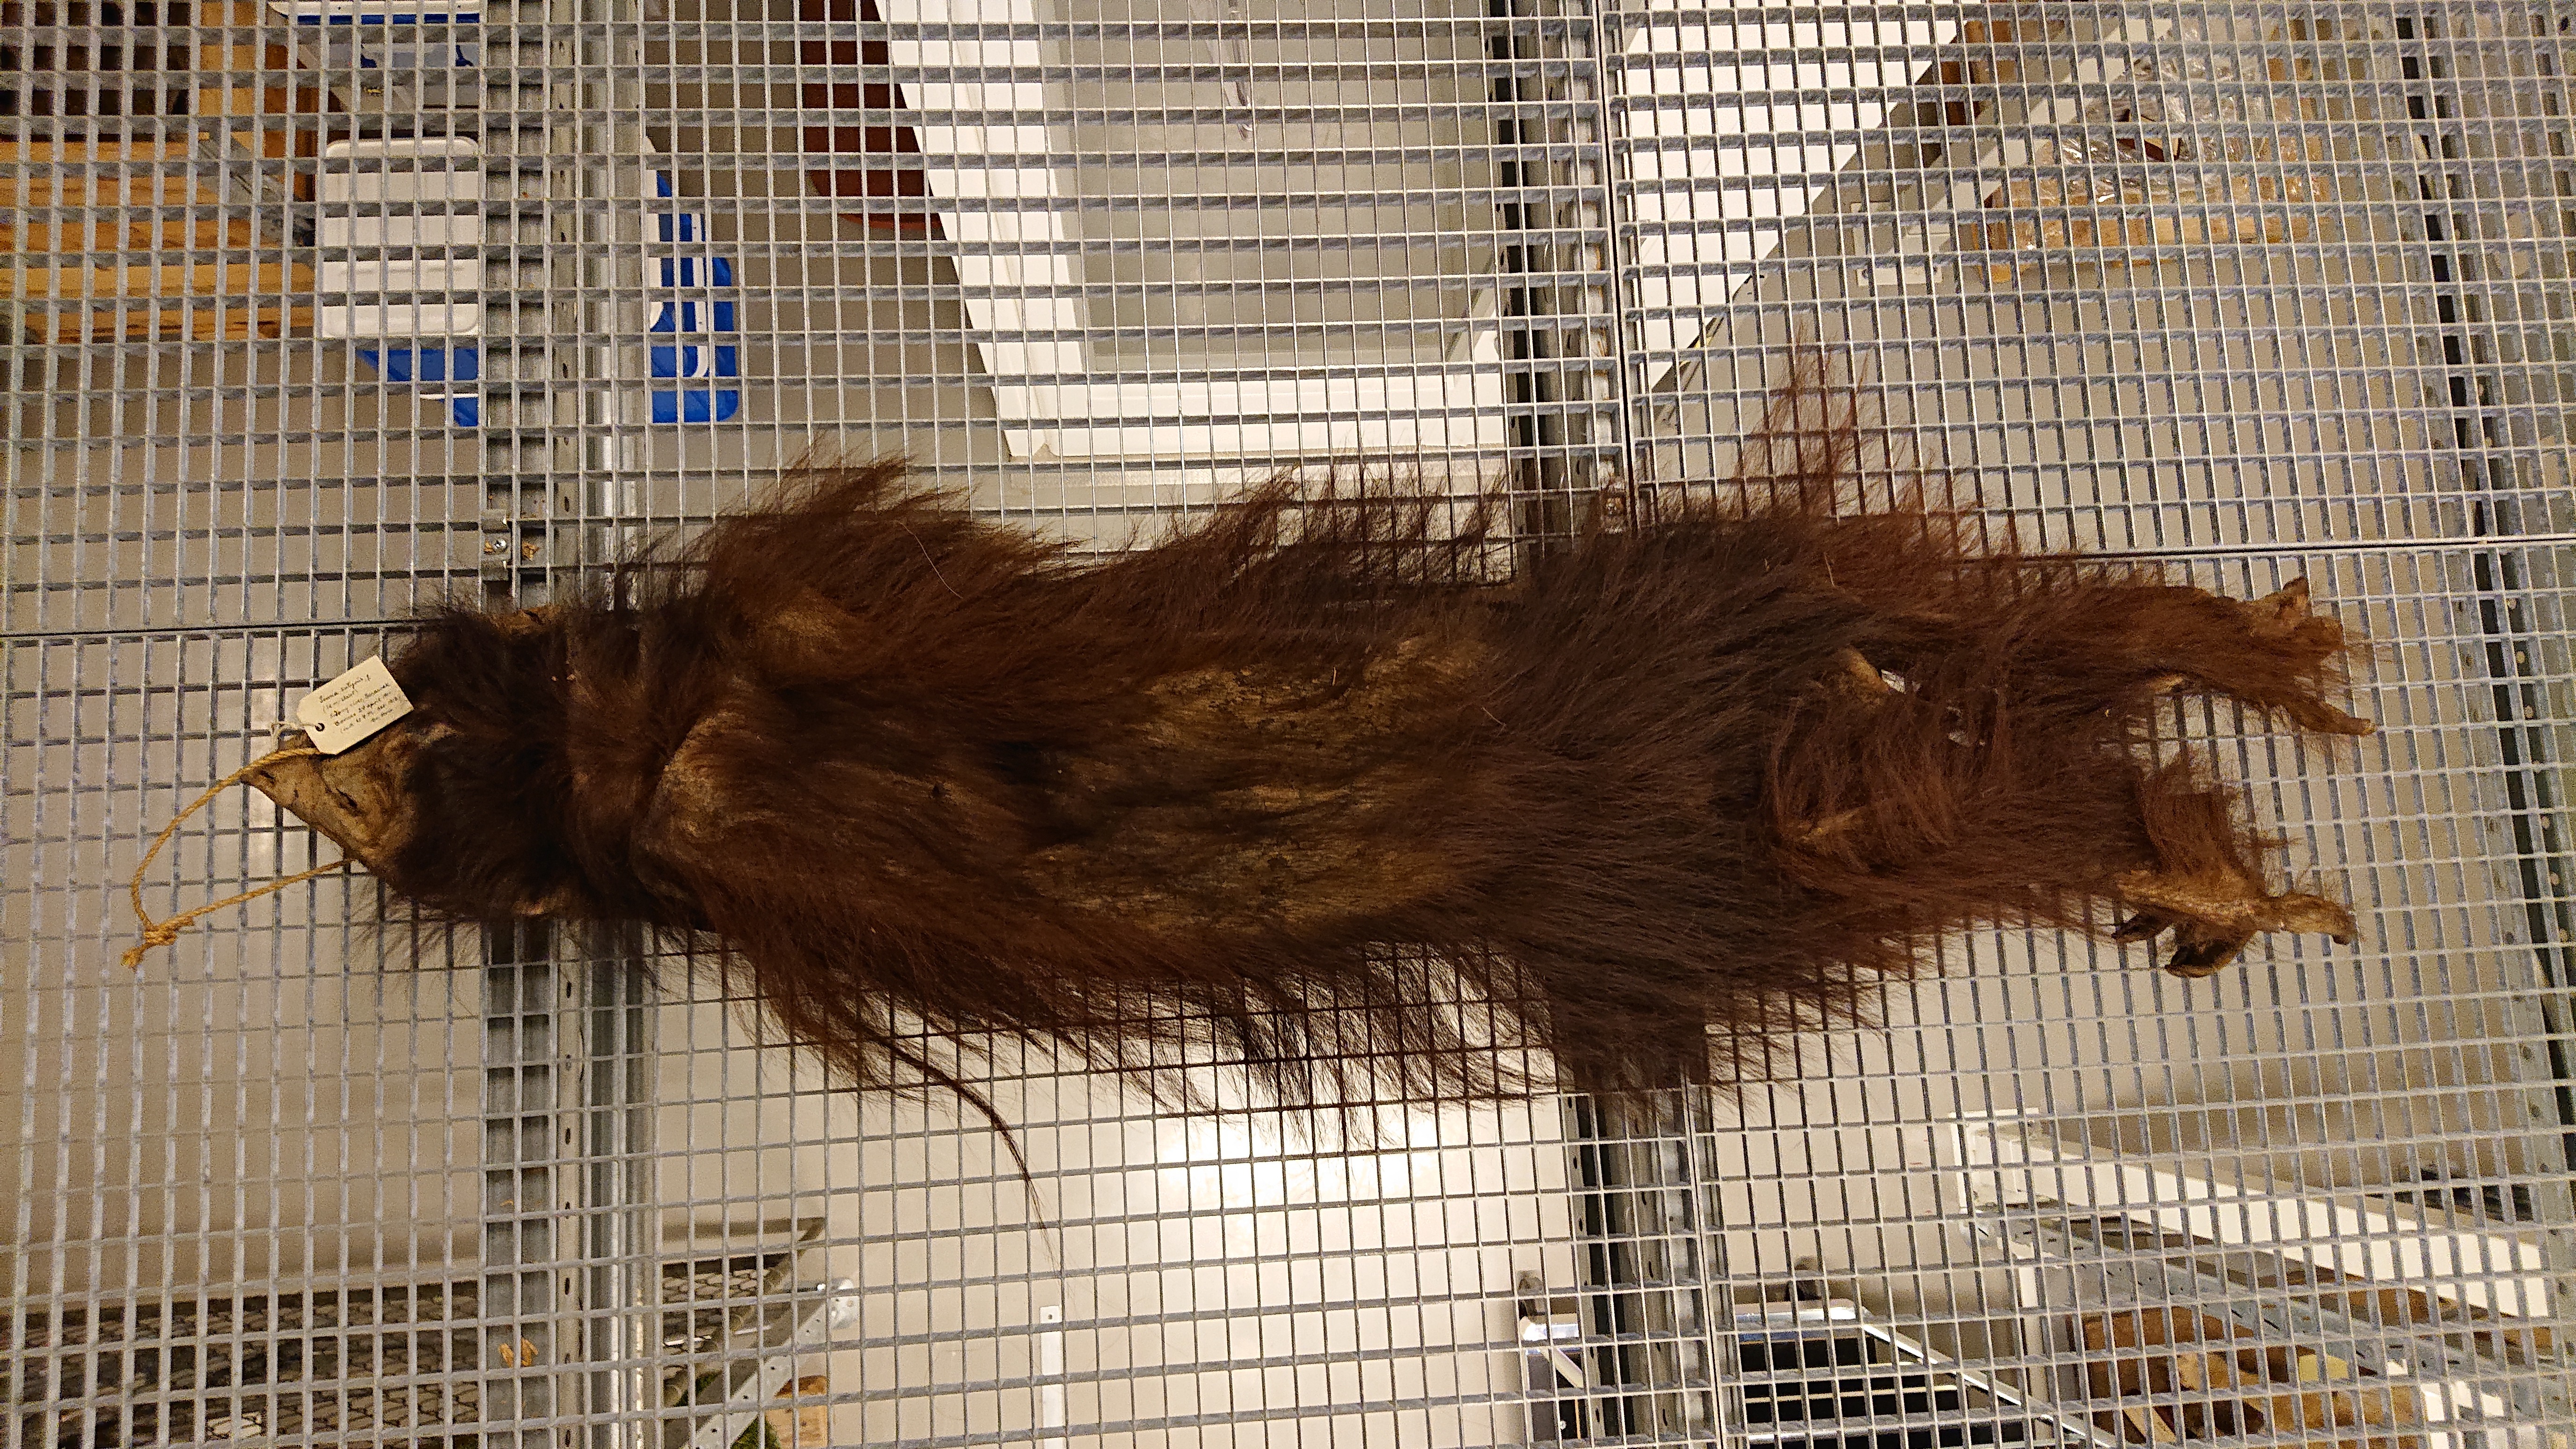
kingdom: Animalia
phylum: Chordata
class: Mammalia
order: Primates
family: Hominidae
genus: Pongo
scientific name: Pongo pygmaeus
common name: Bornean orangutan
